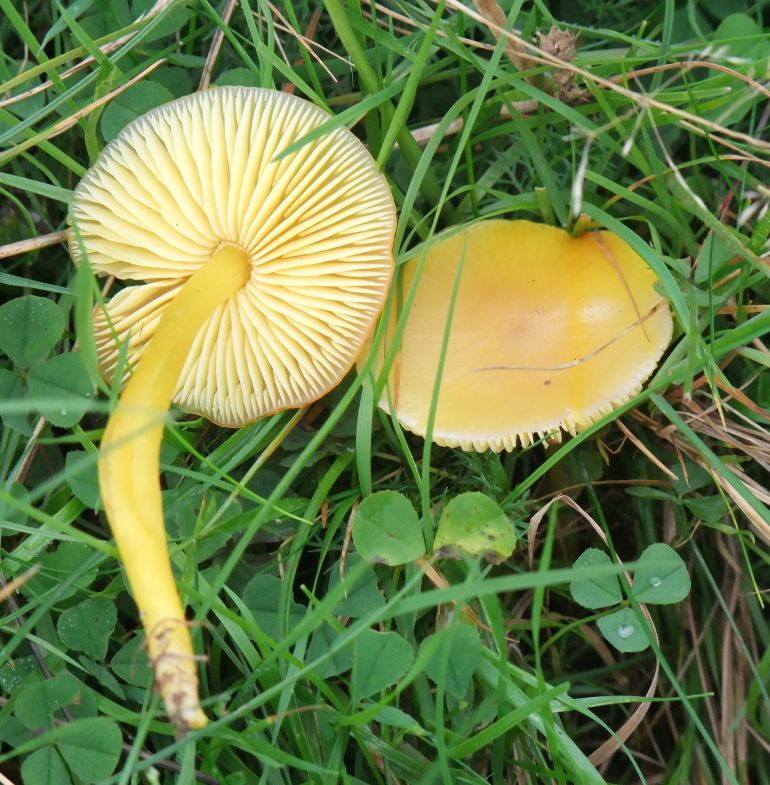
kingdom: Fungi
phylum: Basidiomycota
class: Agaricomycetes
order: Agaricales
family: Hygrophoraceae
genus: Hygrocybe
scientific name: Hygrocybe chlorophana
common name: gul vokshat
